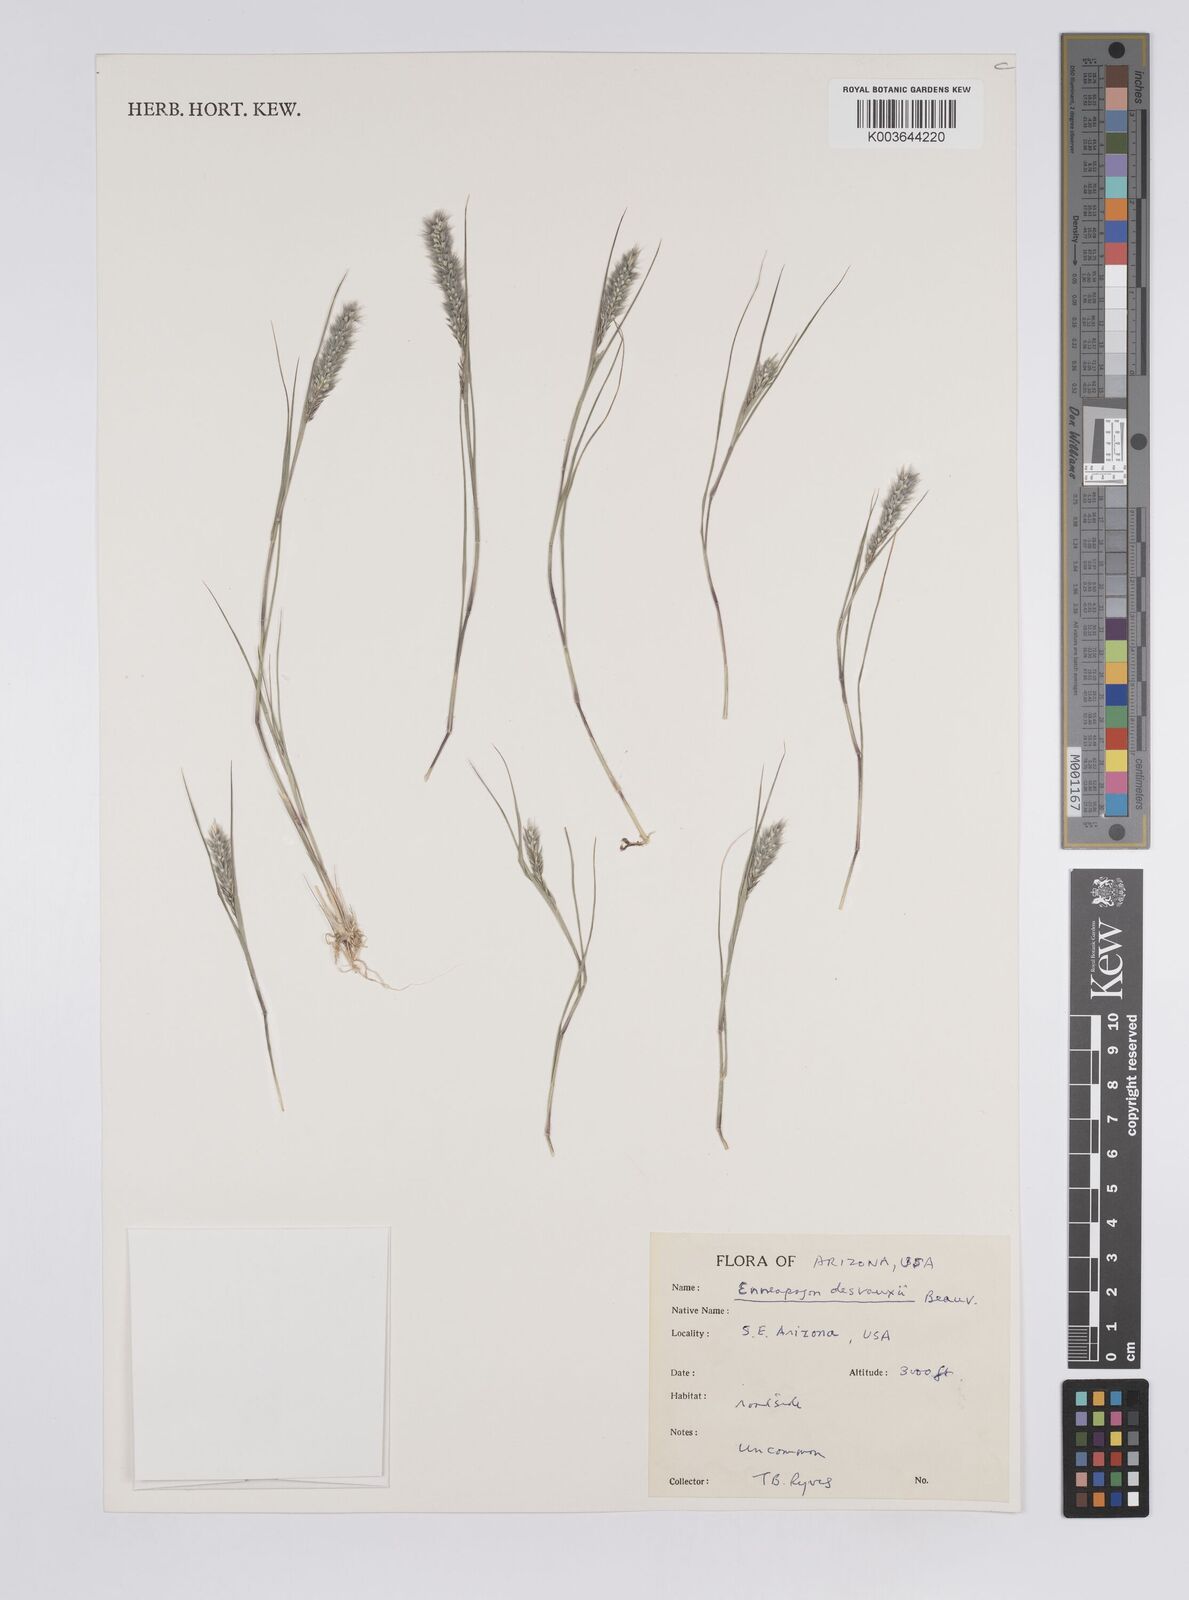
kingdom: Plantae
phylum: Tracheophyta
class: Liliopsida
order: Poales
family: Poaceae
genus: Enneapogon
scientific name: Enneapogon desvauxii
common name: Feather pappus grass
